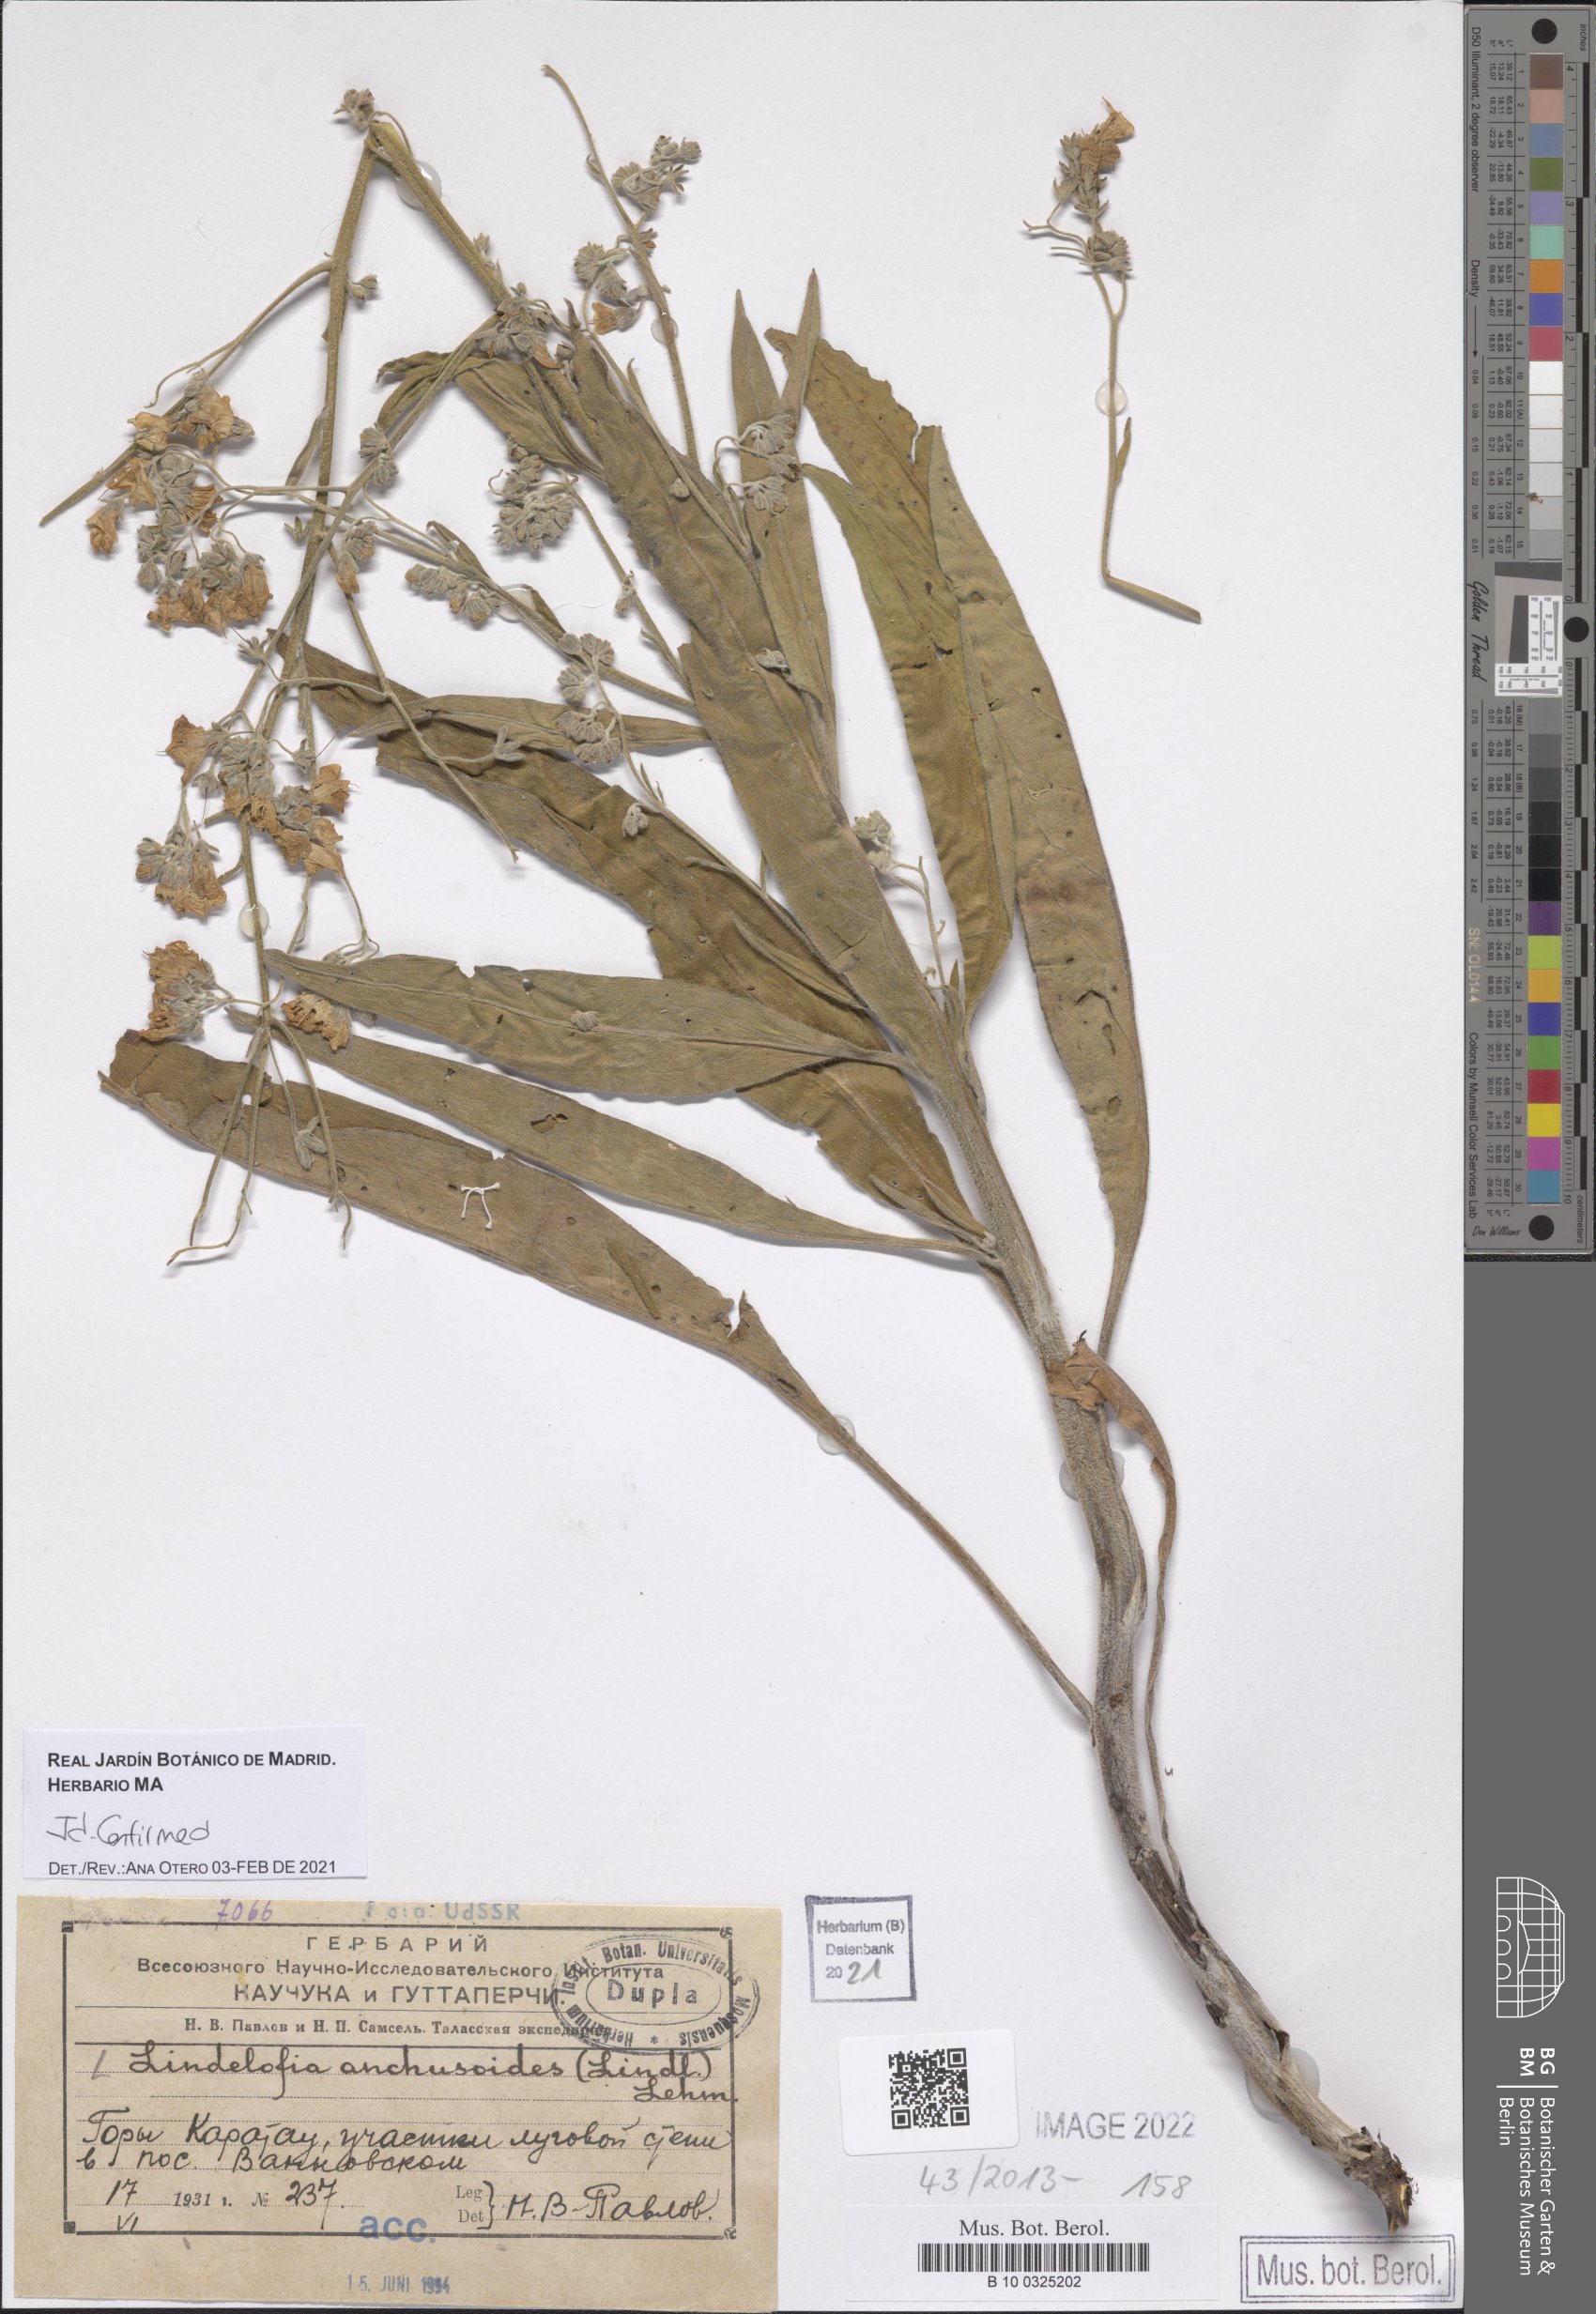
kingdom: Plantae
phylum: Tracheophyta
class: Magnoliopsida
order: Boraginales
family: Boraginaceae
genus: Lindelofia
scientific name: Lindelofia anchusoides
